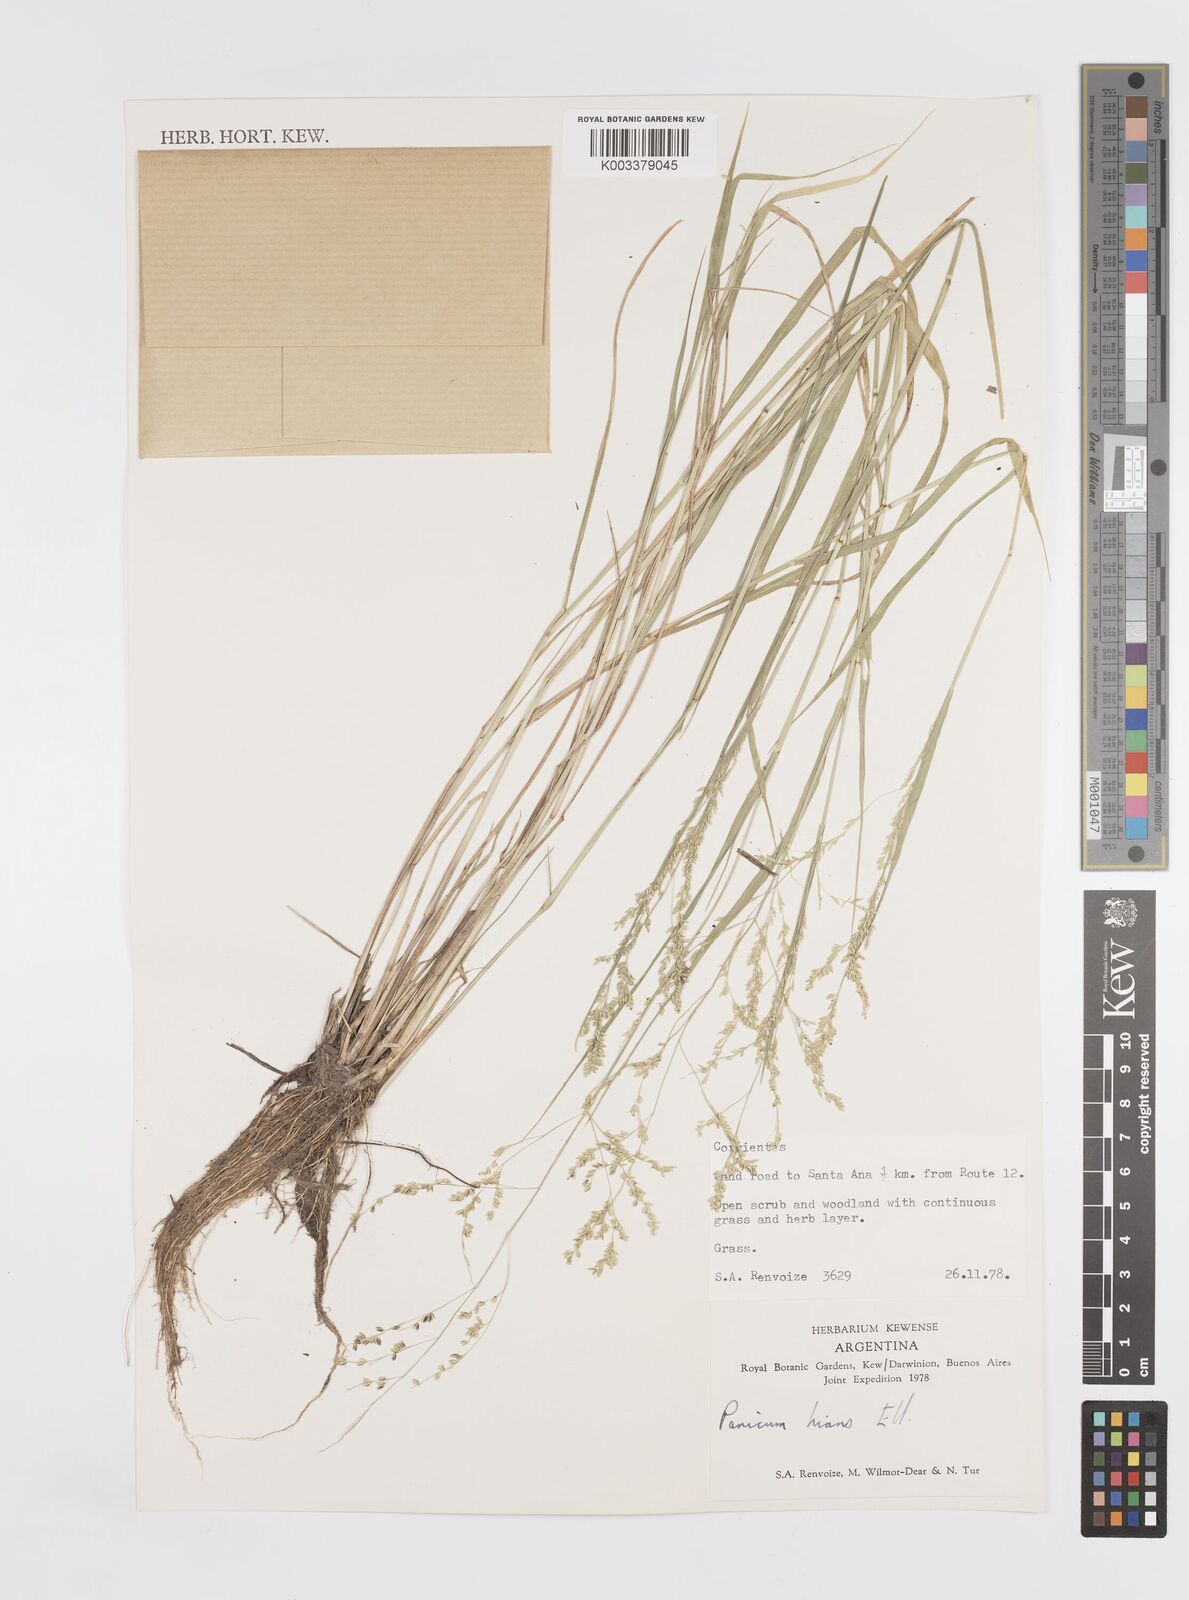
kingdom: Plantae
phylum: Tracheophyta
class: Liliopsida
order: Poales
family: Poaceae
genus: Steinchisma
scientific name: Steinchisma hians
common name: Gaping panic grass
